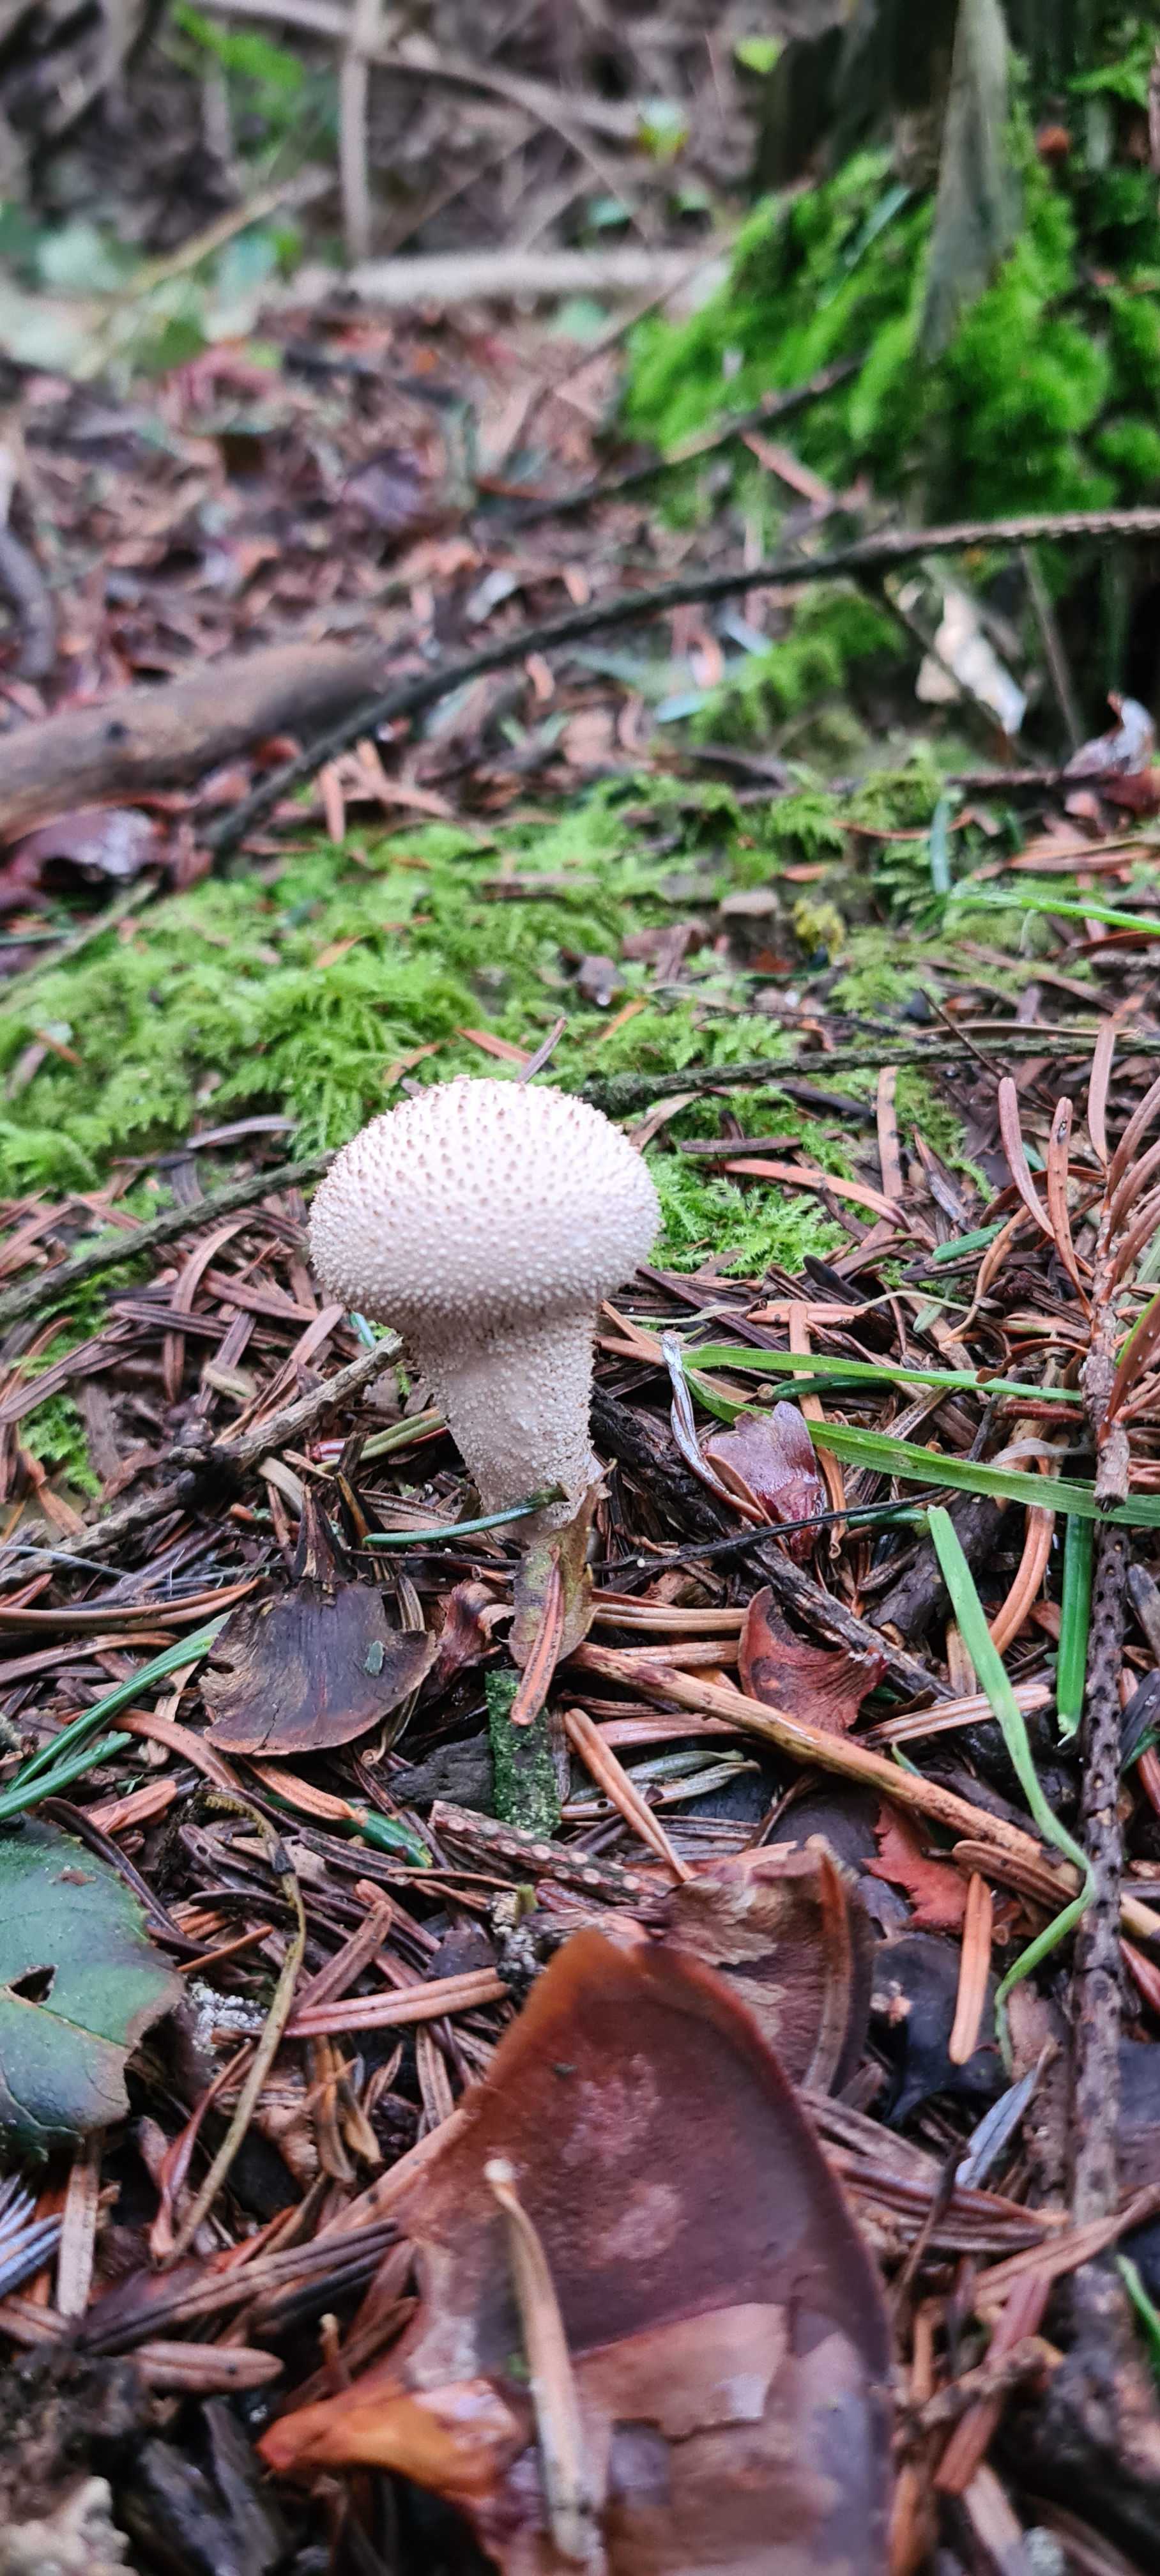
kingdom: Fungi
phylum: Basidiomycota
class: Agaricomycetes
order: Agaricales
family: Lycoperdaceae
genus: Lycoperdon
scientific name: Lycoperdon perlatum
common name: krystal-støvbold
